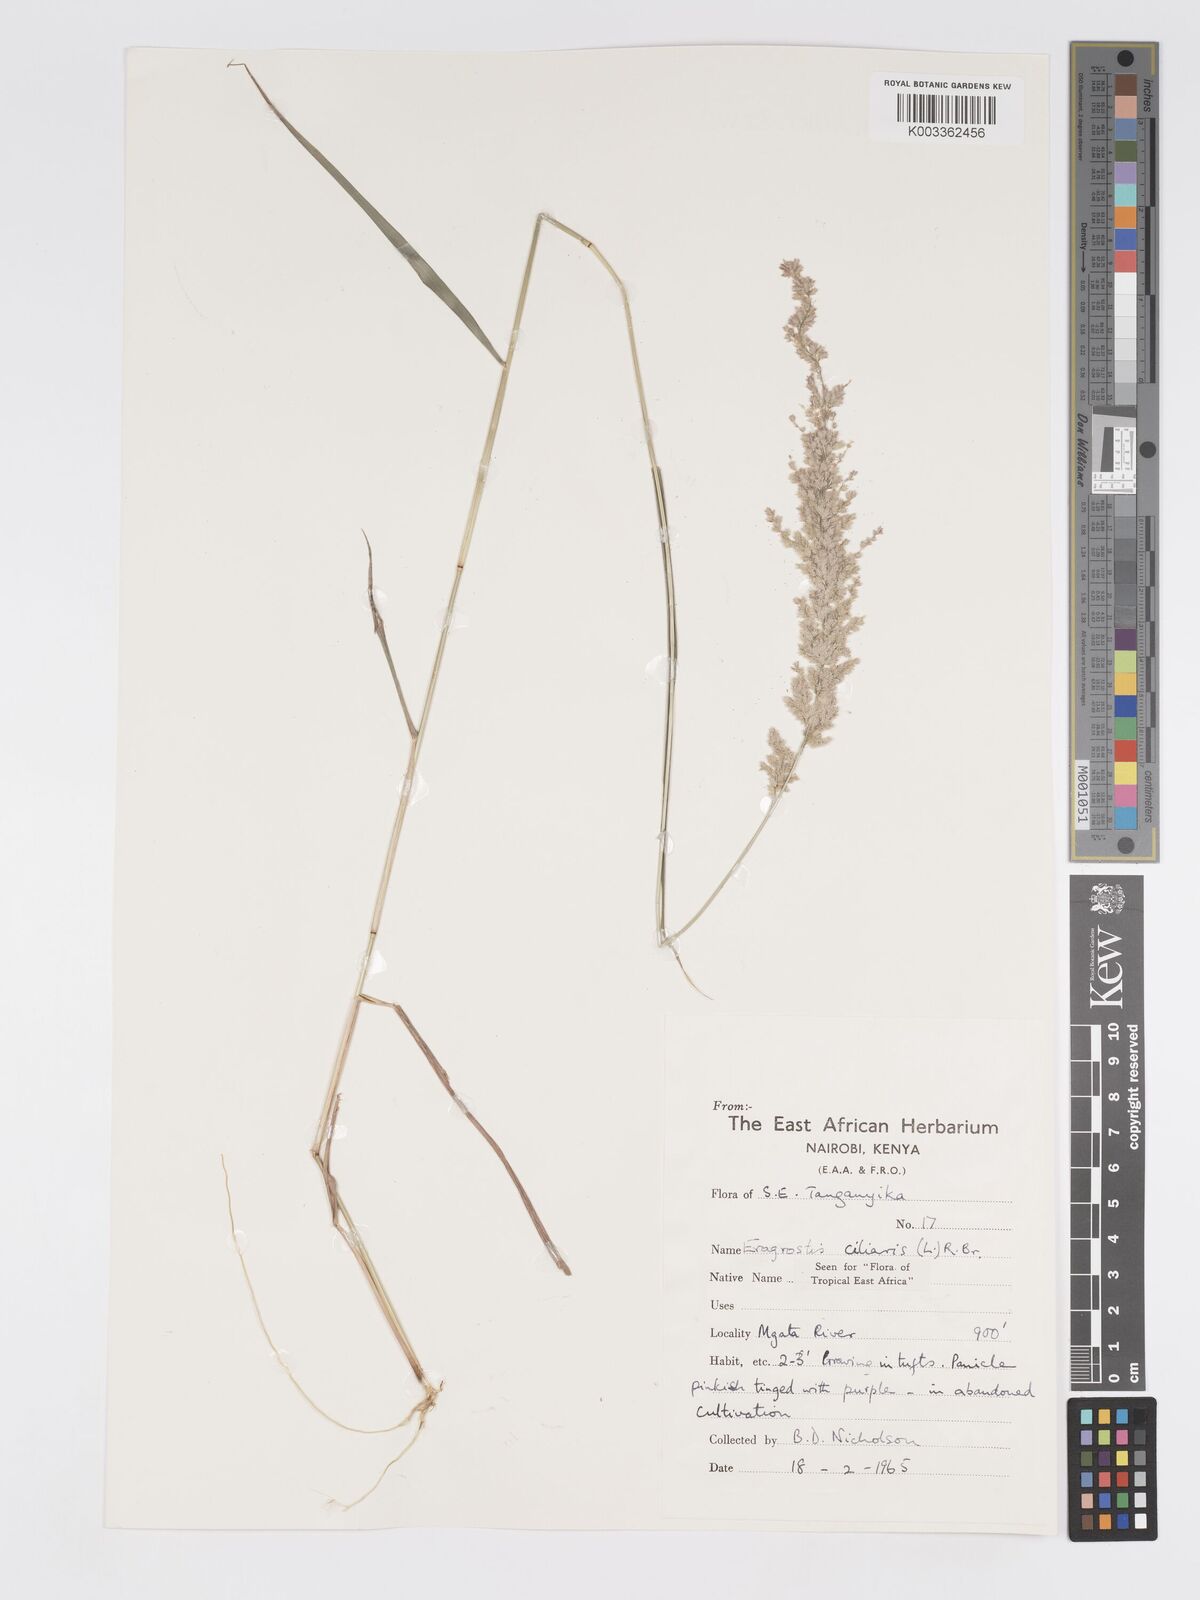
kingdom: Plantae
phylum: Tracheophyta
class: Liliopsida
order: Poales
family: Poaceae
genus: Eragrostis
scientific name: Eragrostis ciliaris
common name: Gophertail lovegrass
